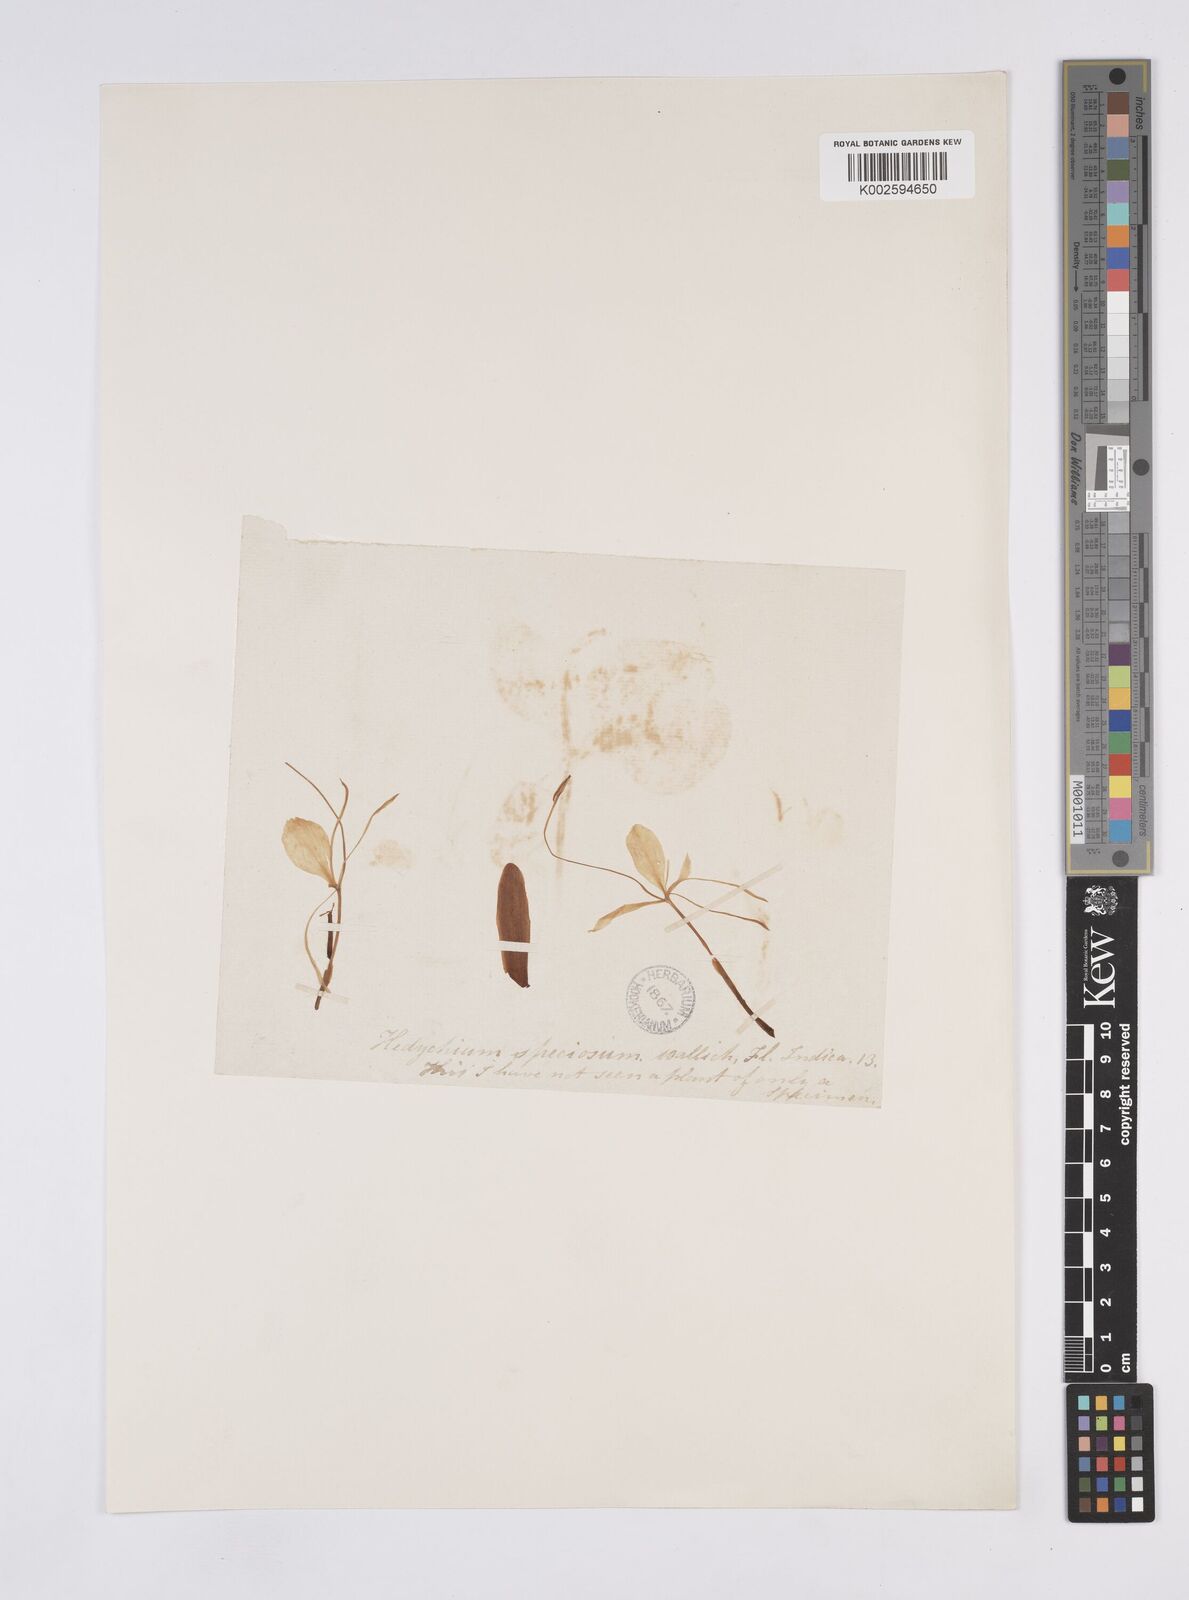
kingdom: Plantae
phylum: Tracheophyta
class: Liliopsida
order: Zingiberales
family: Zingiberaceae
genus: Hedychium
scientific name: Hedychium stenopetalum
